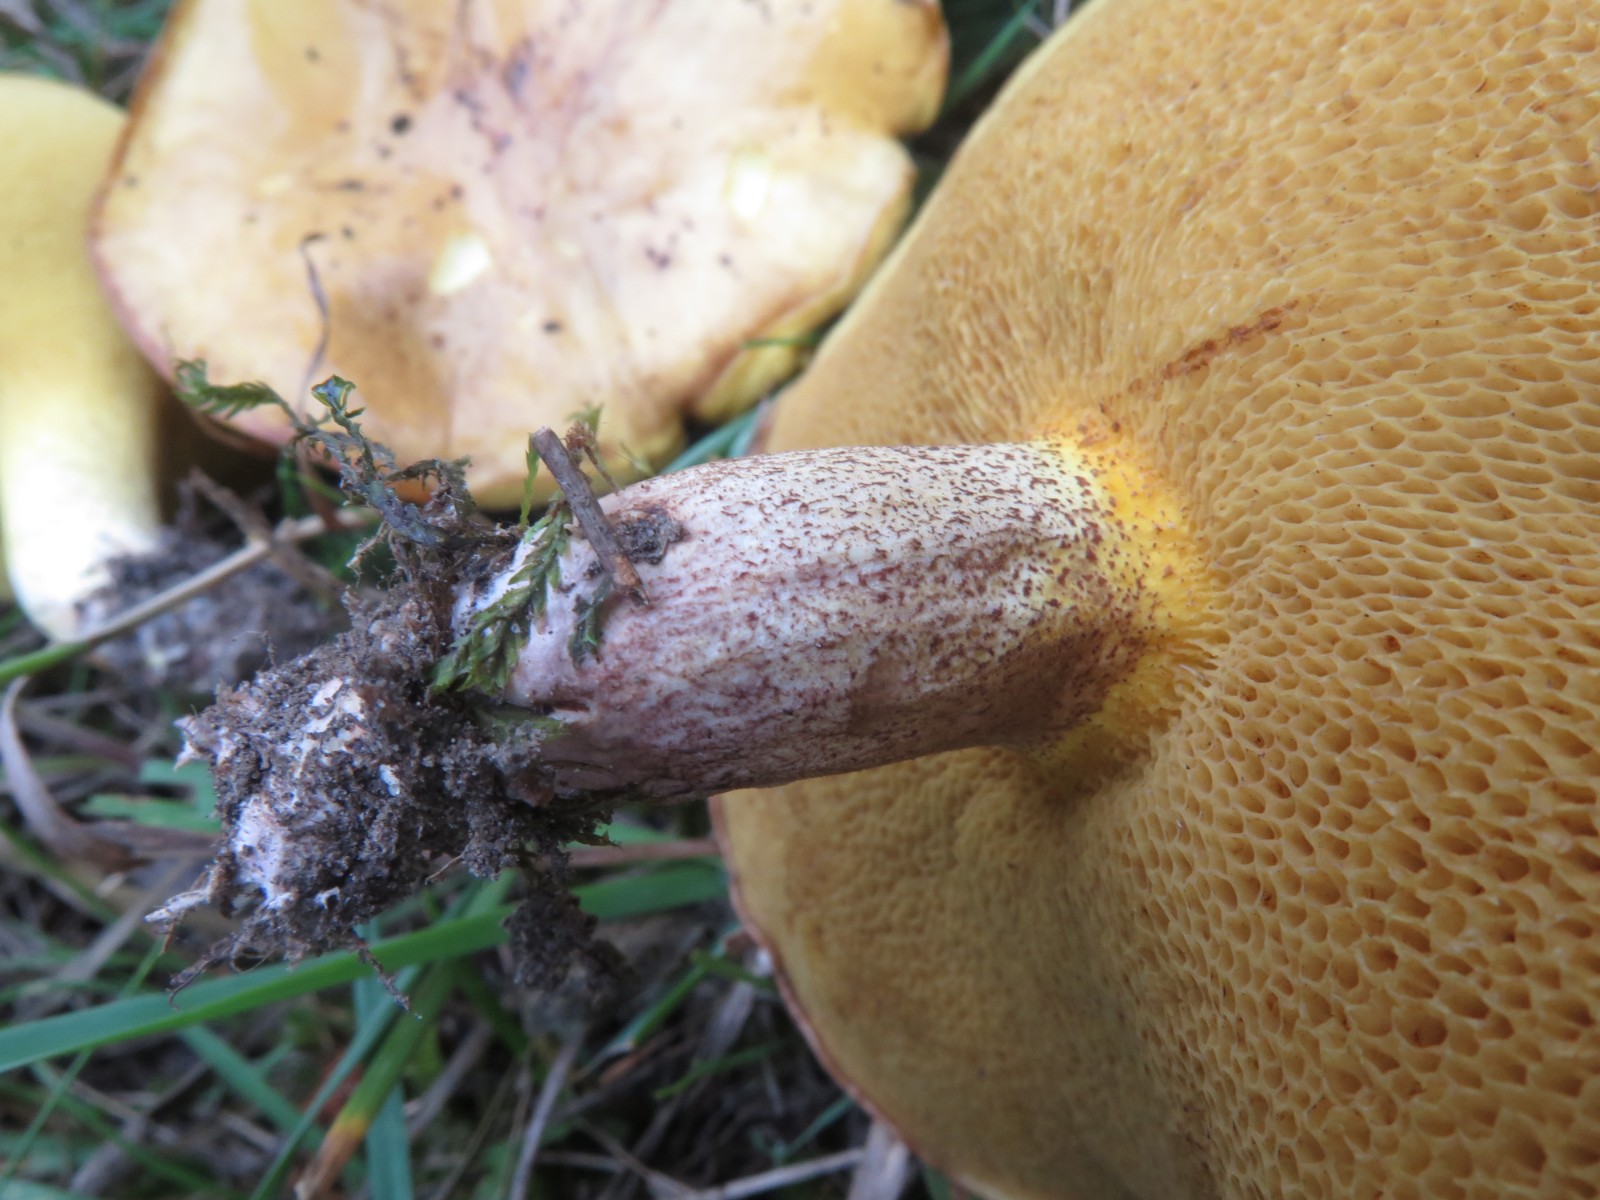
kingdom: Fungi
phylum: Basidiomycota
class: Agaricomycetes
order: Boletales
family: Suillaceae
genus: Suillus
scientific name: Suillus luteus
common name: brungul slimrørhat
